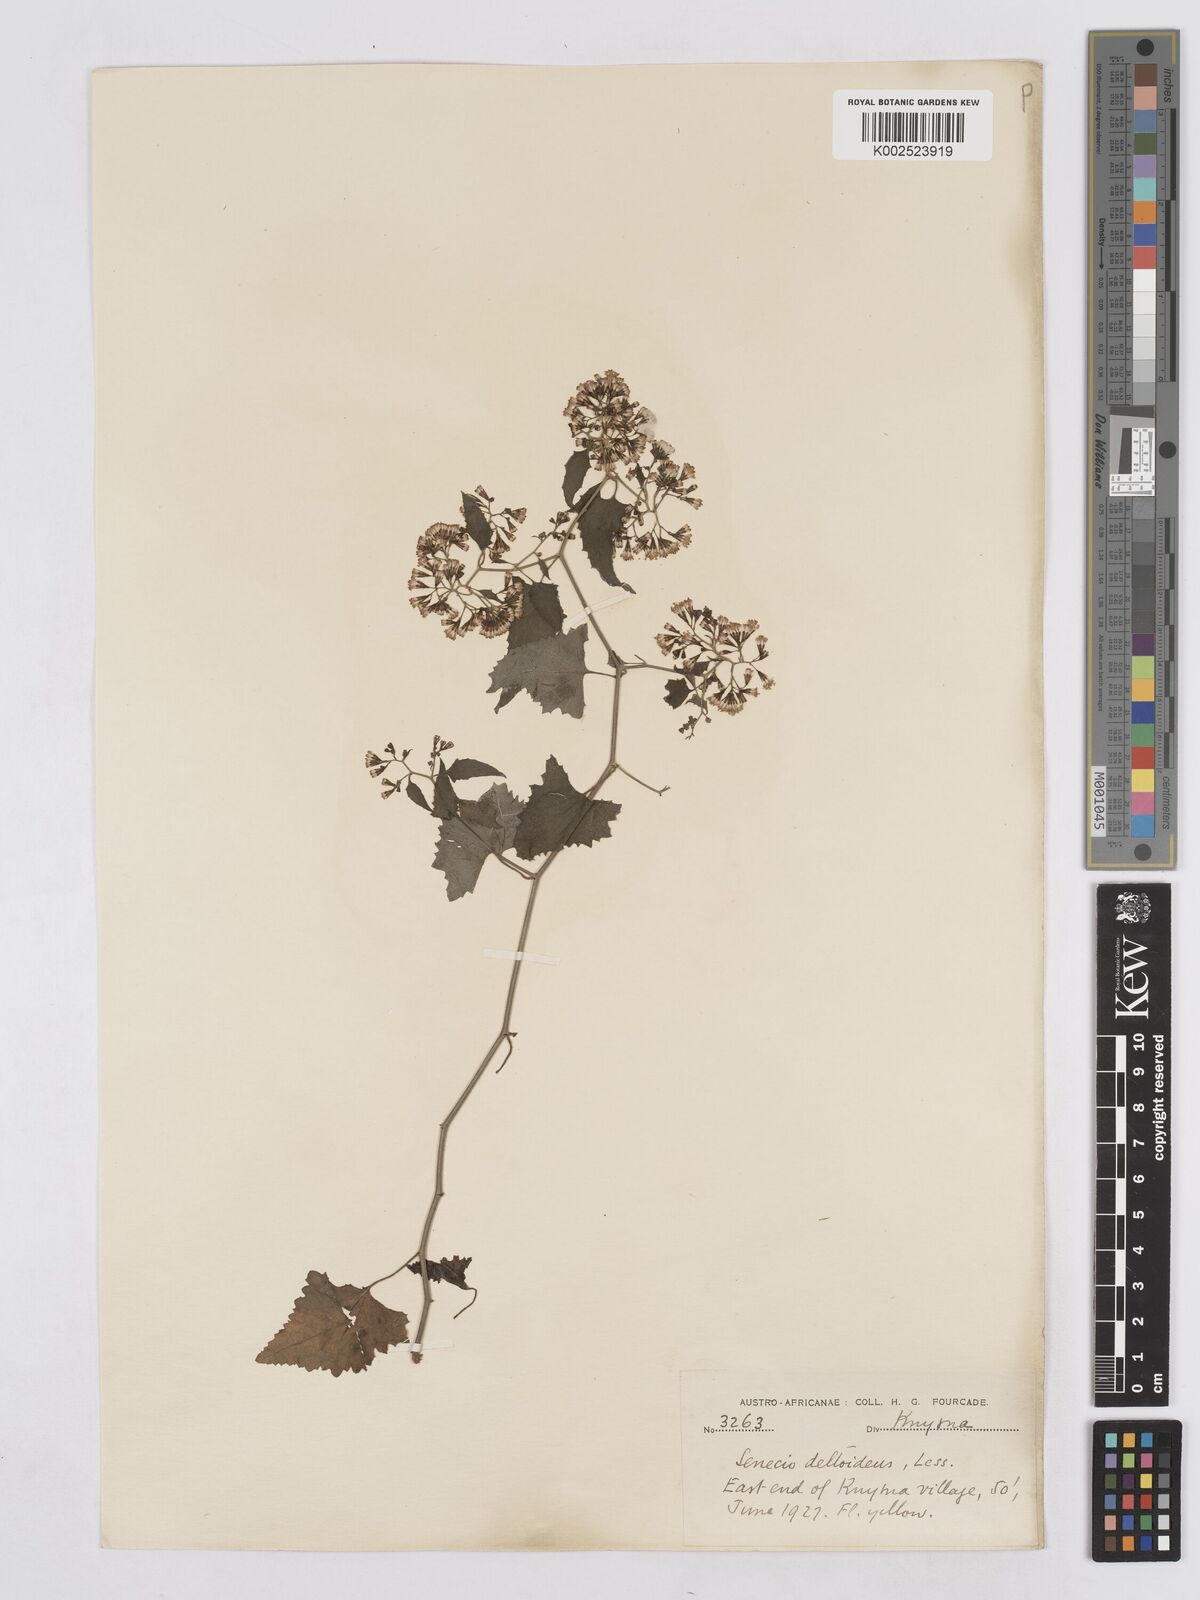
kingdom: Plantae
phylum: Tracheophyta
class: Magnoliopsida
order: Asterales
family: Asteraceae
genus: Senecio
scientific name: Senecio deltoideus
